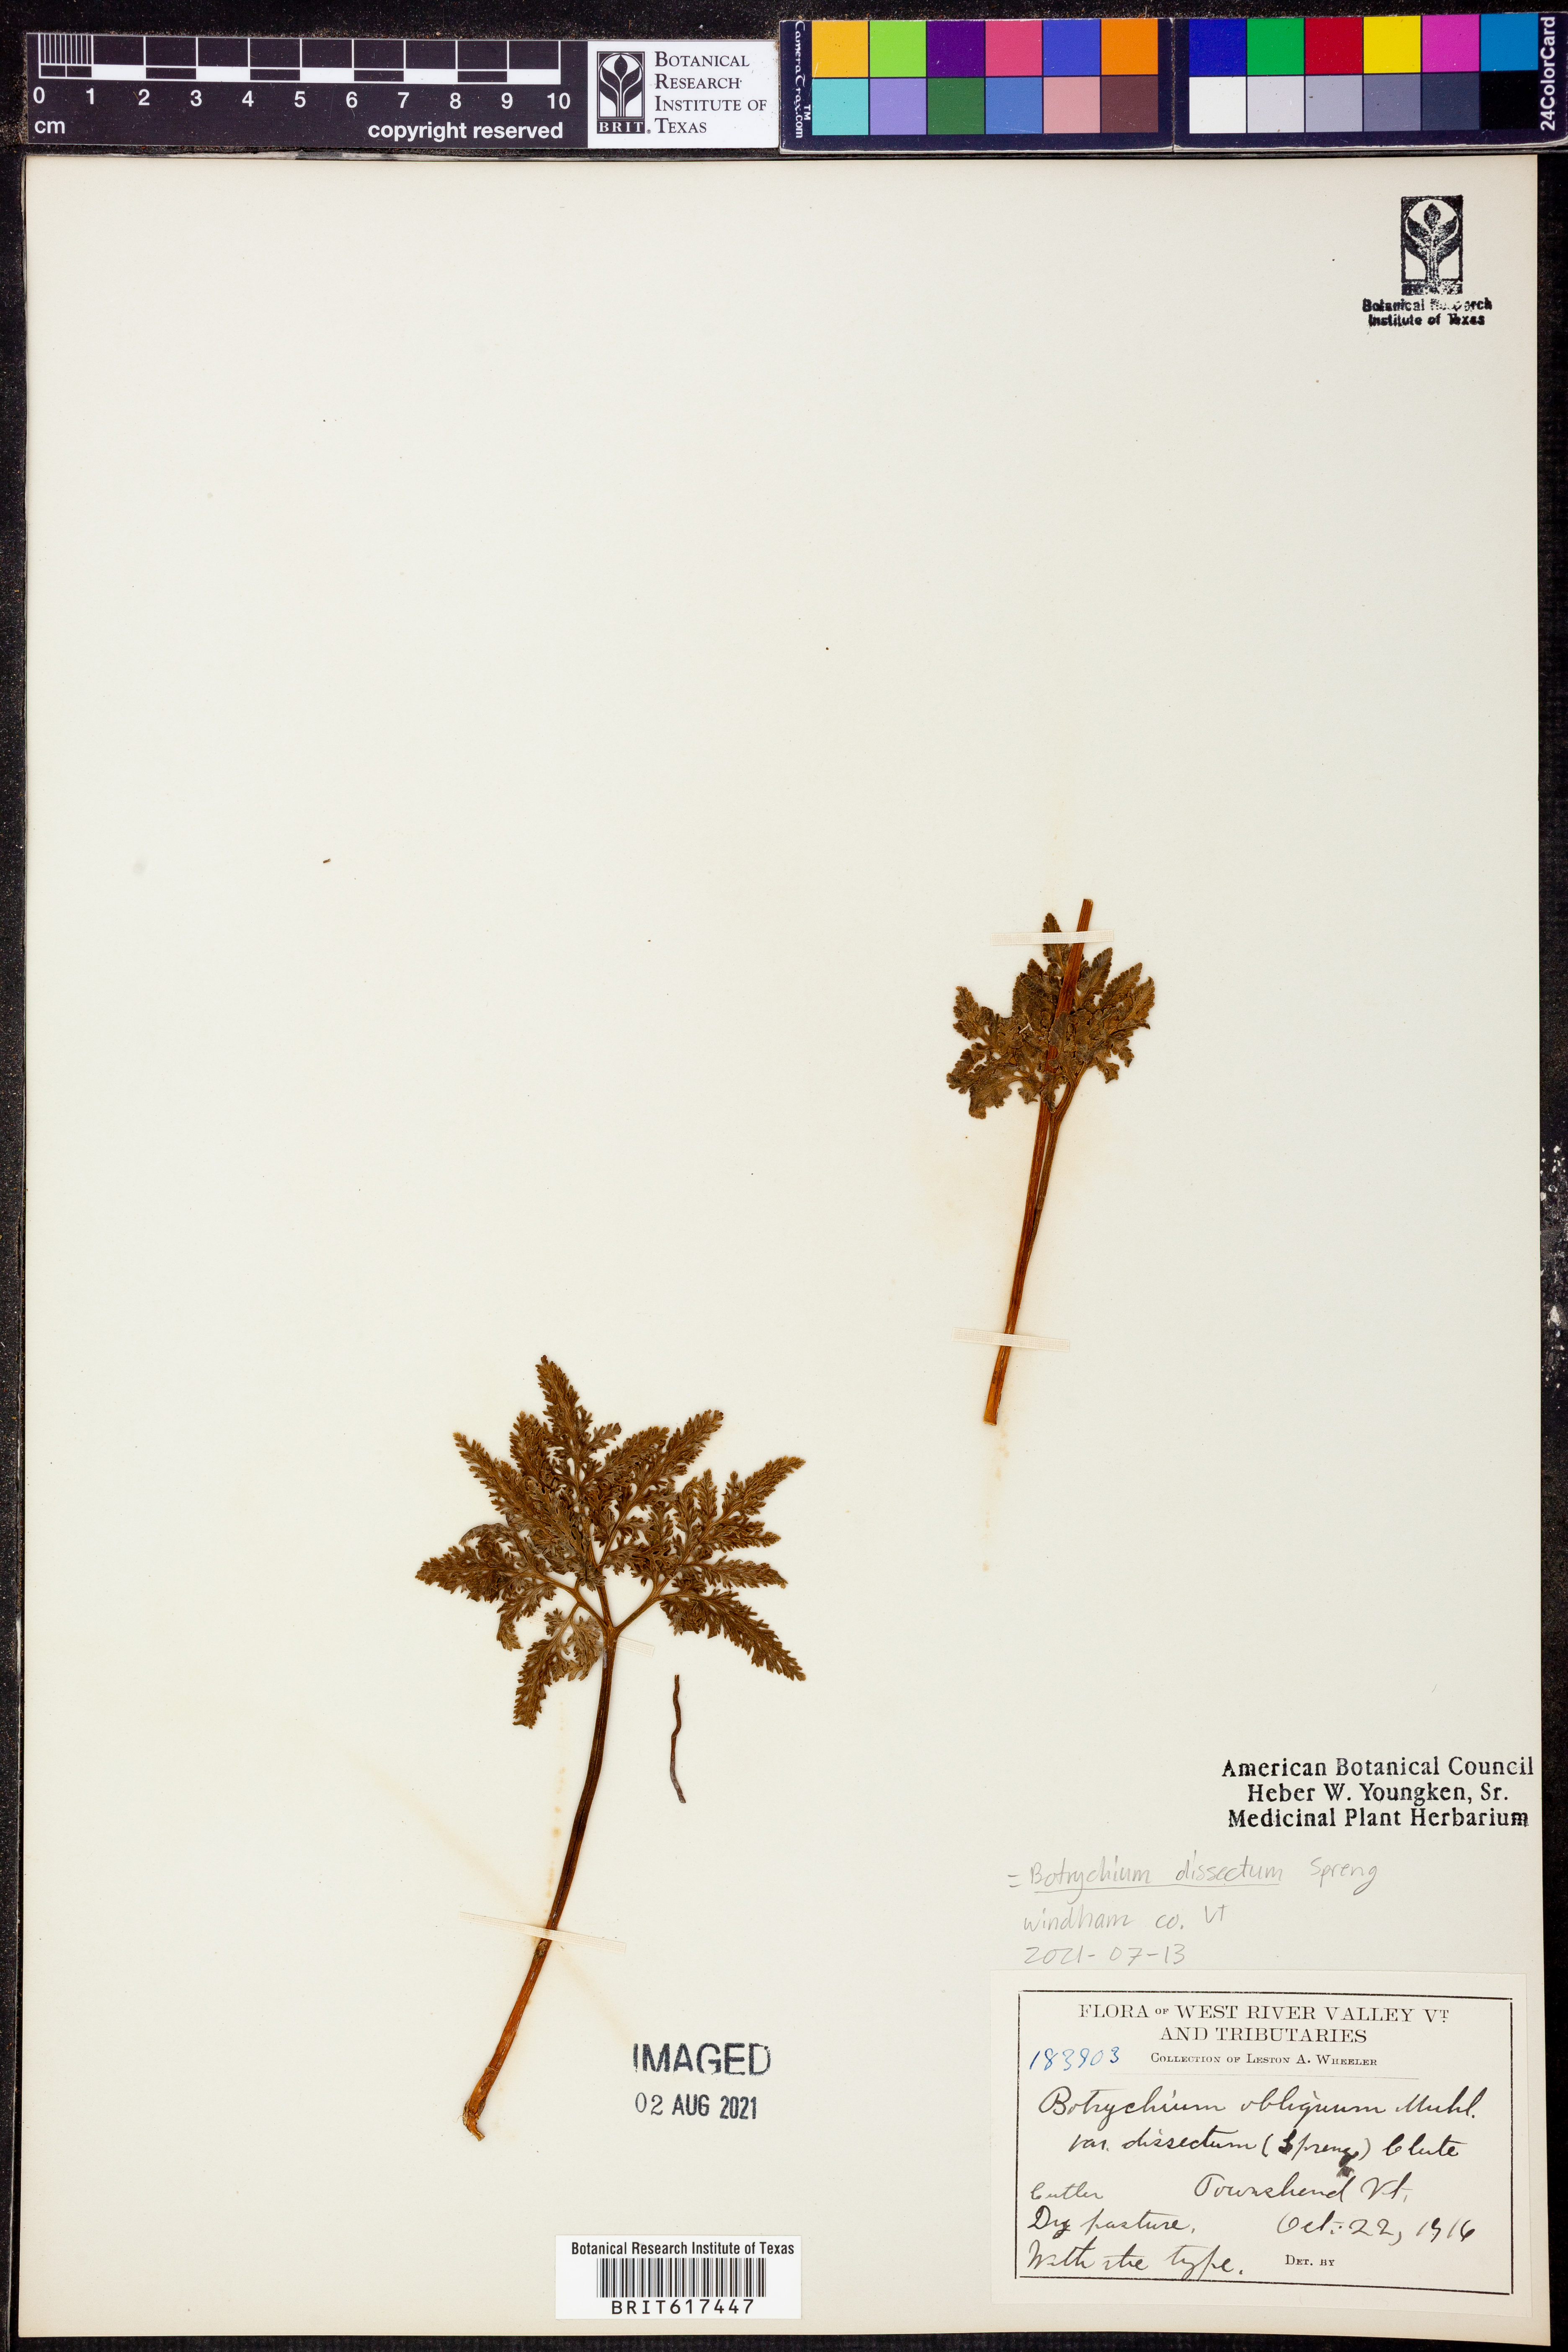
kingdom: Plantae
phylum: Tracheophyta
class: Polypodiopsida
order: Ophioglossales
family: Ophioglossaceae
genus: Sceptridium
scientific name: Sceptridium dissectum
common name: Cut-leaved grapefern
